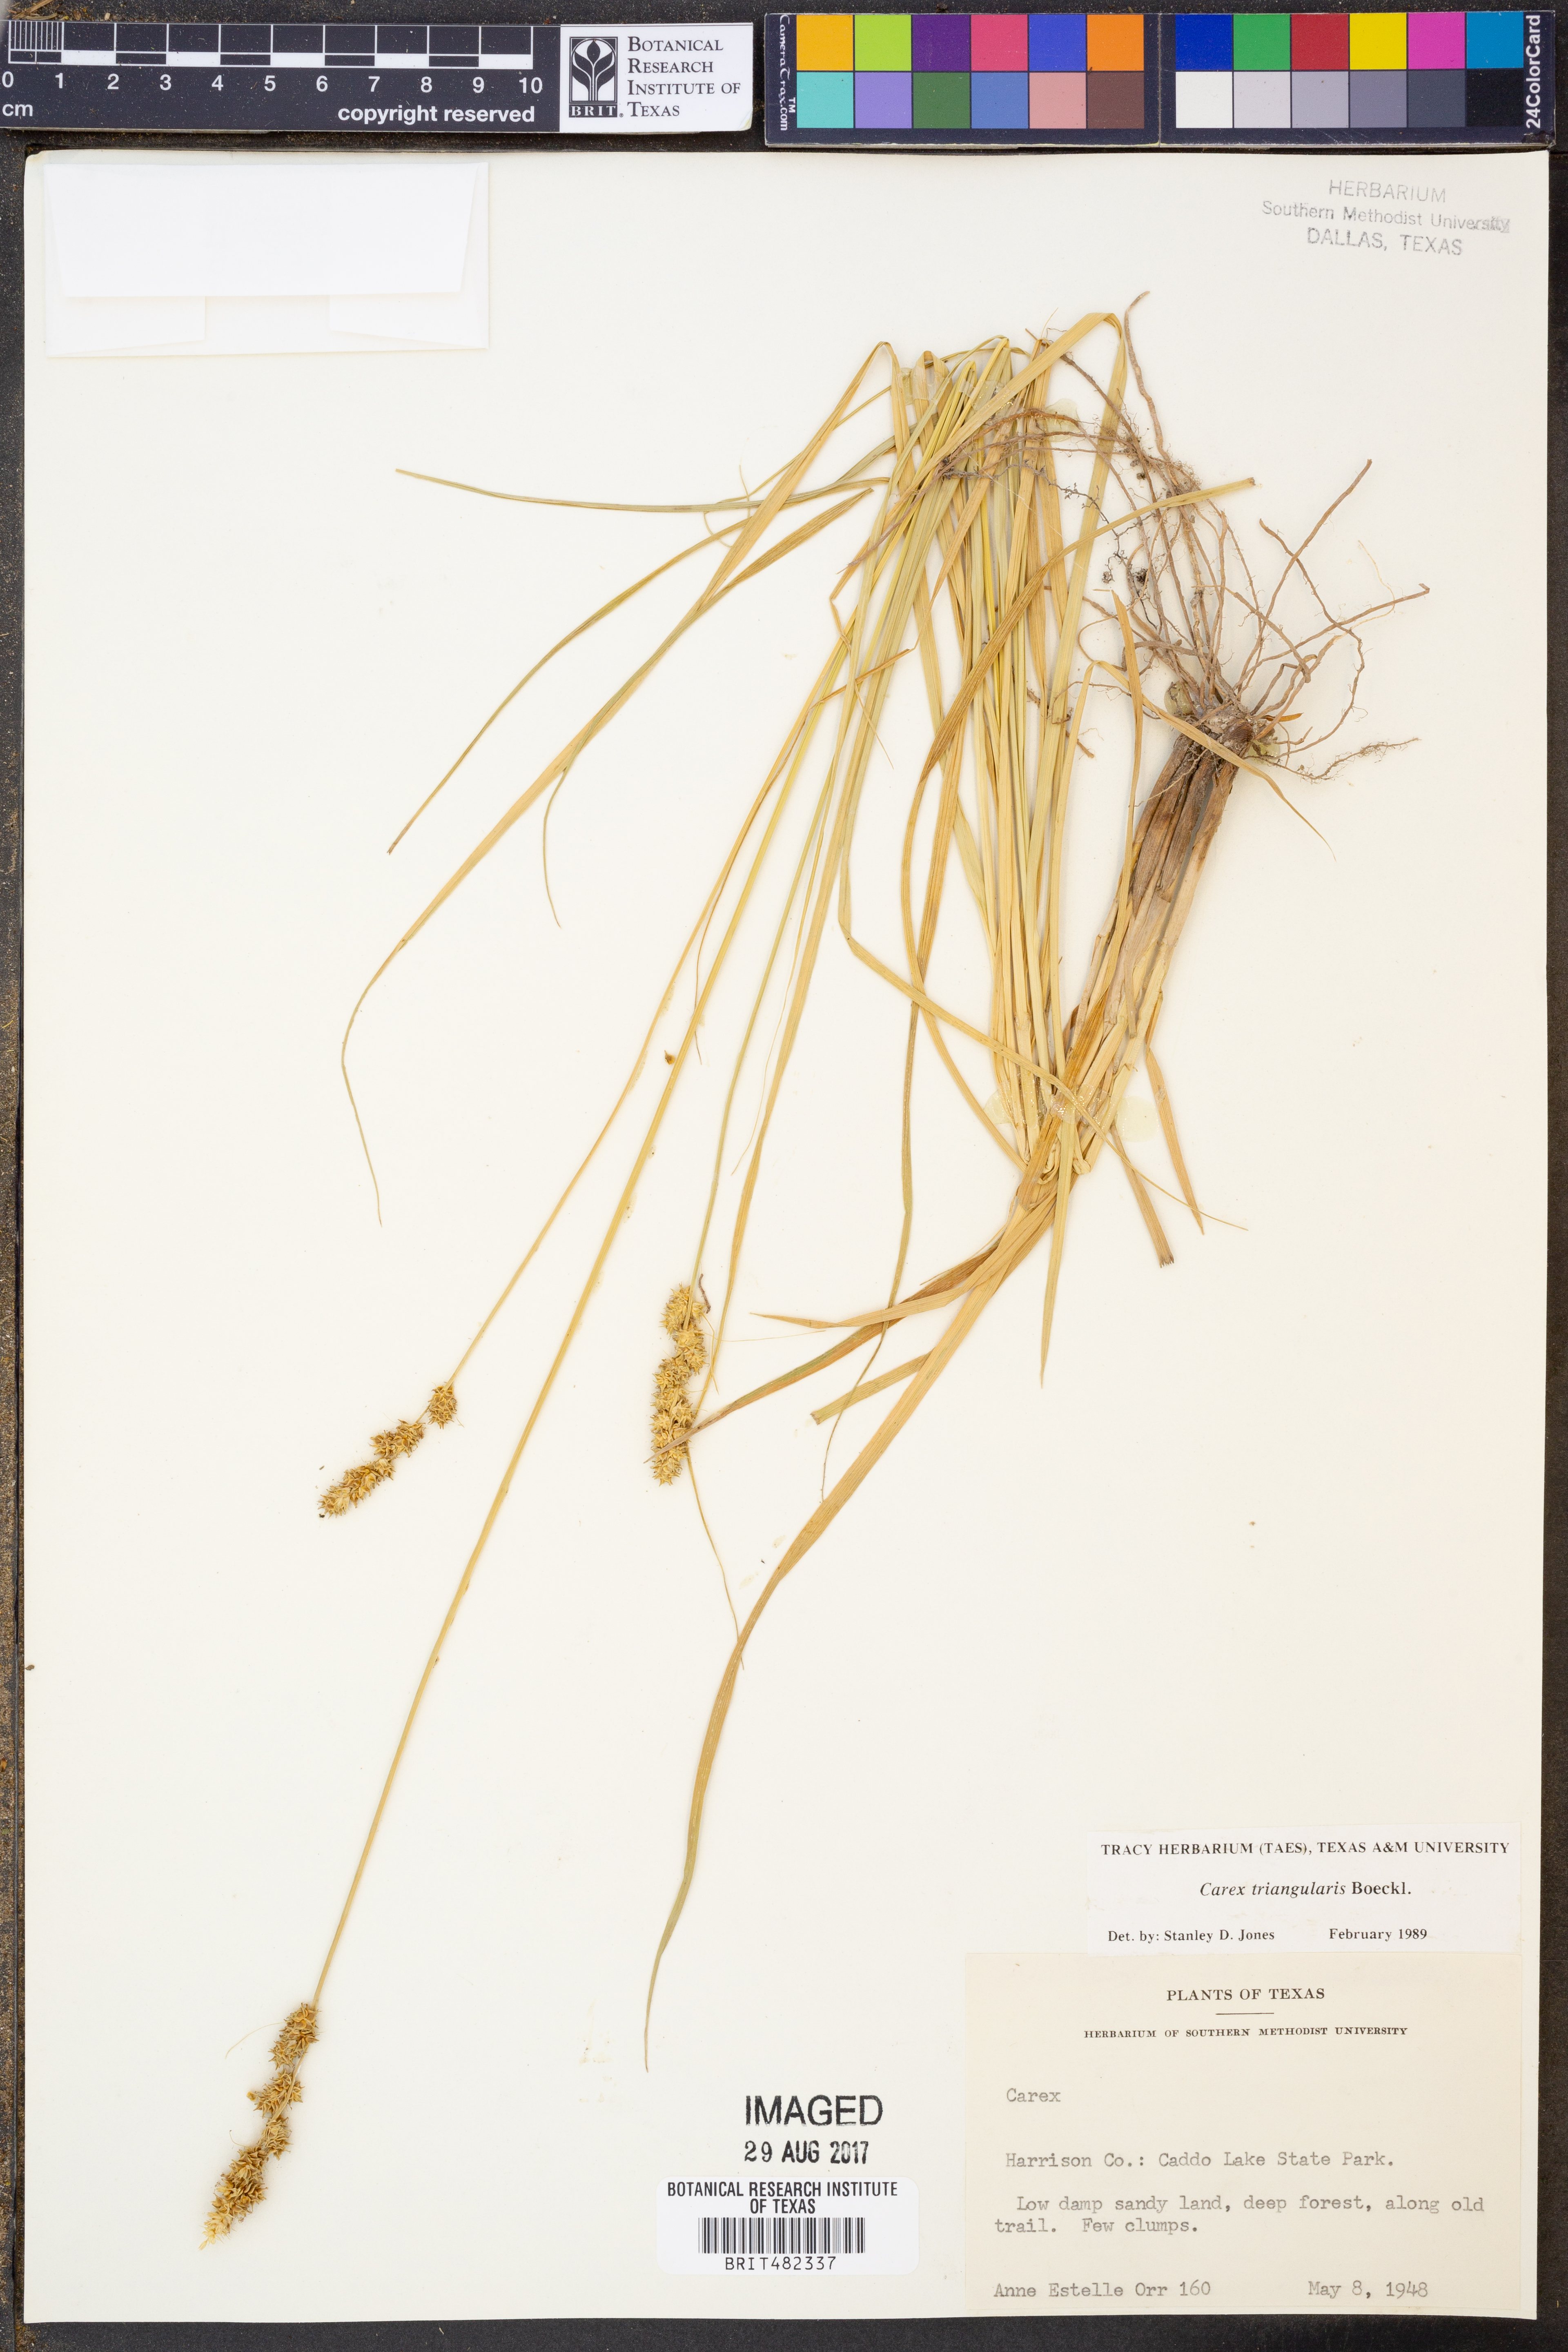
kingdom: Plantae
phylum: Tracheophyta
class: Liliopsida
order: Poales
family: Cyperaceae
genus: Carex
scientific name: Carex triangularis
